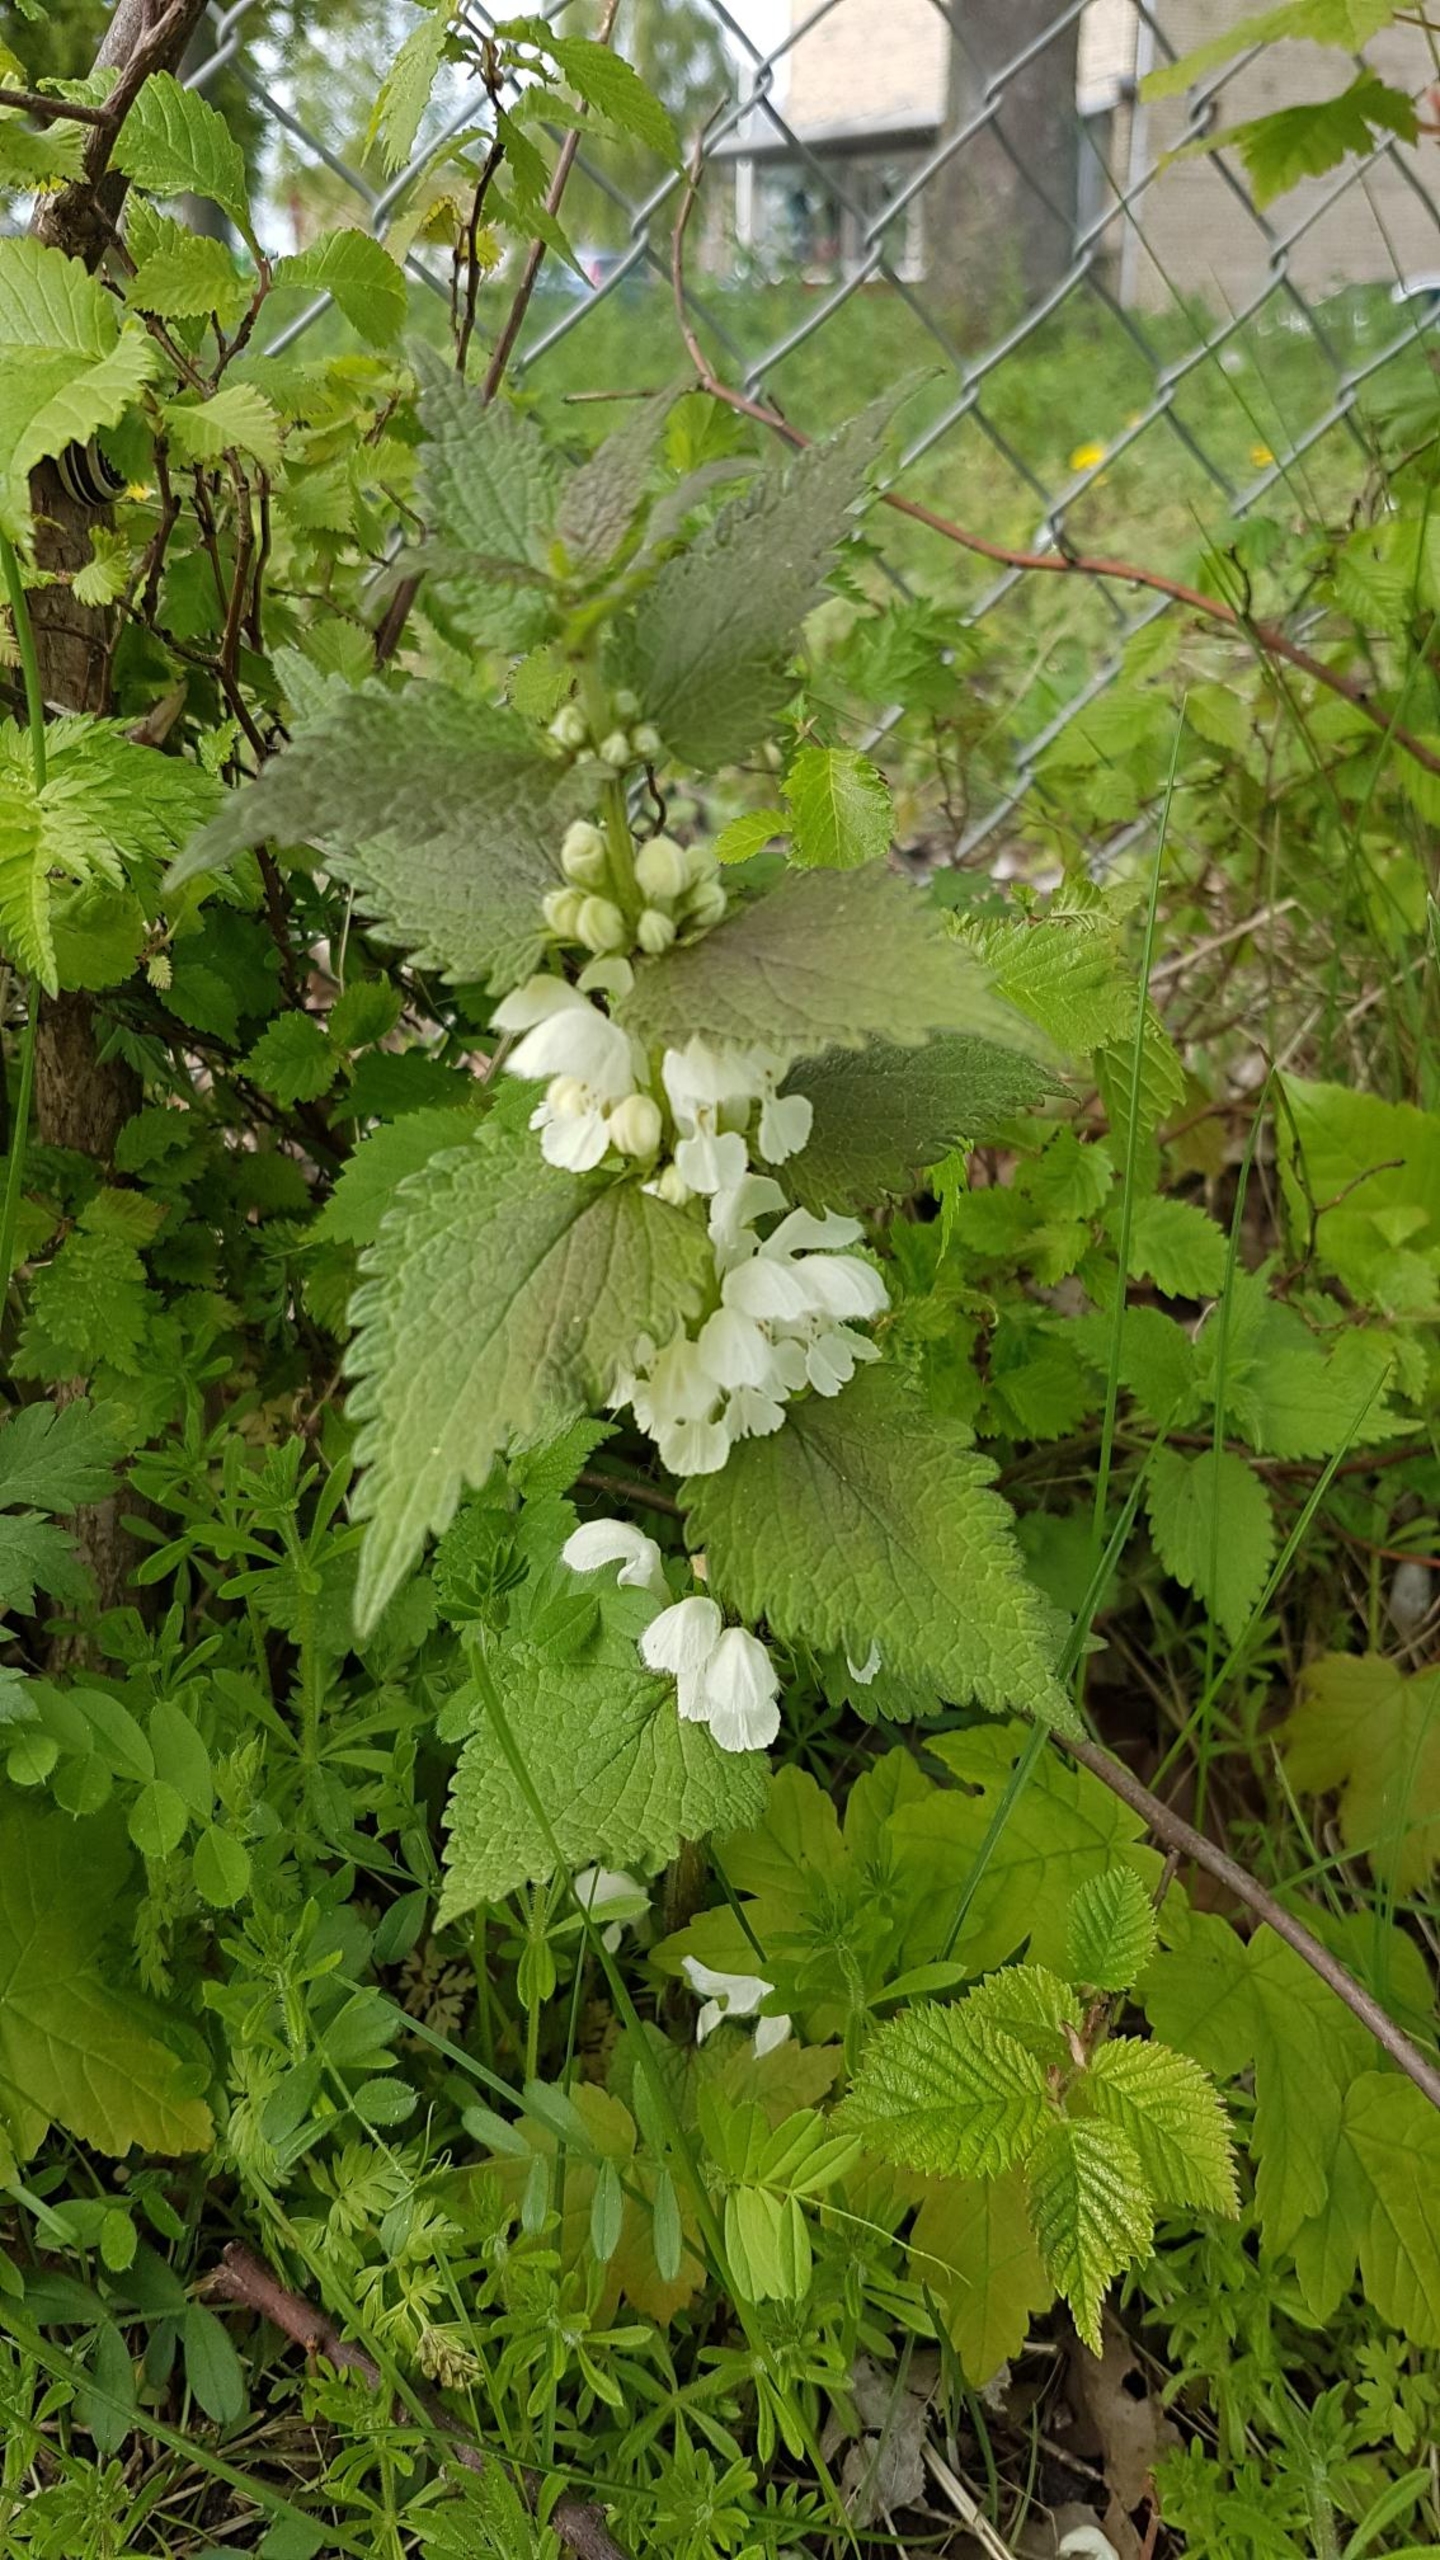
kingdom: Plantae
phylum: Tracheophyta
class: Magnoliopsida
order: Lamiales
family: Lamiaceae
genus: Lamium
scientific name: Lamium album
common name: Døvnælde
